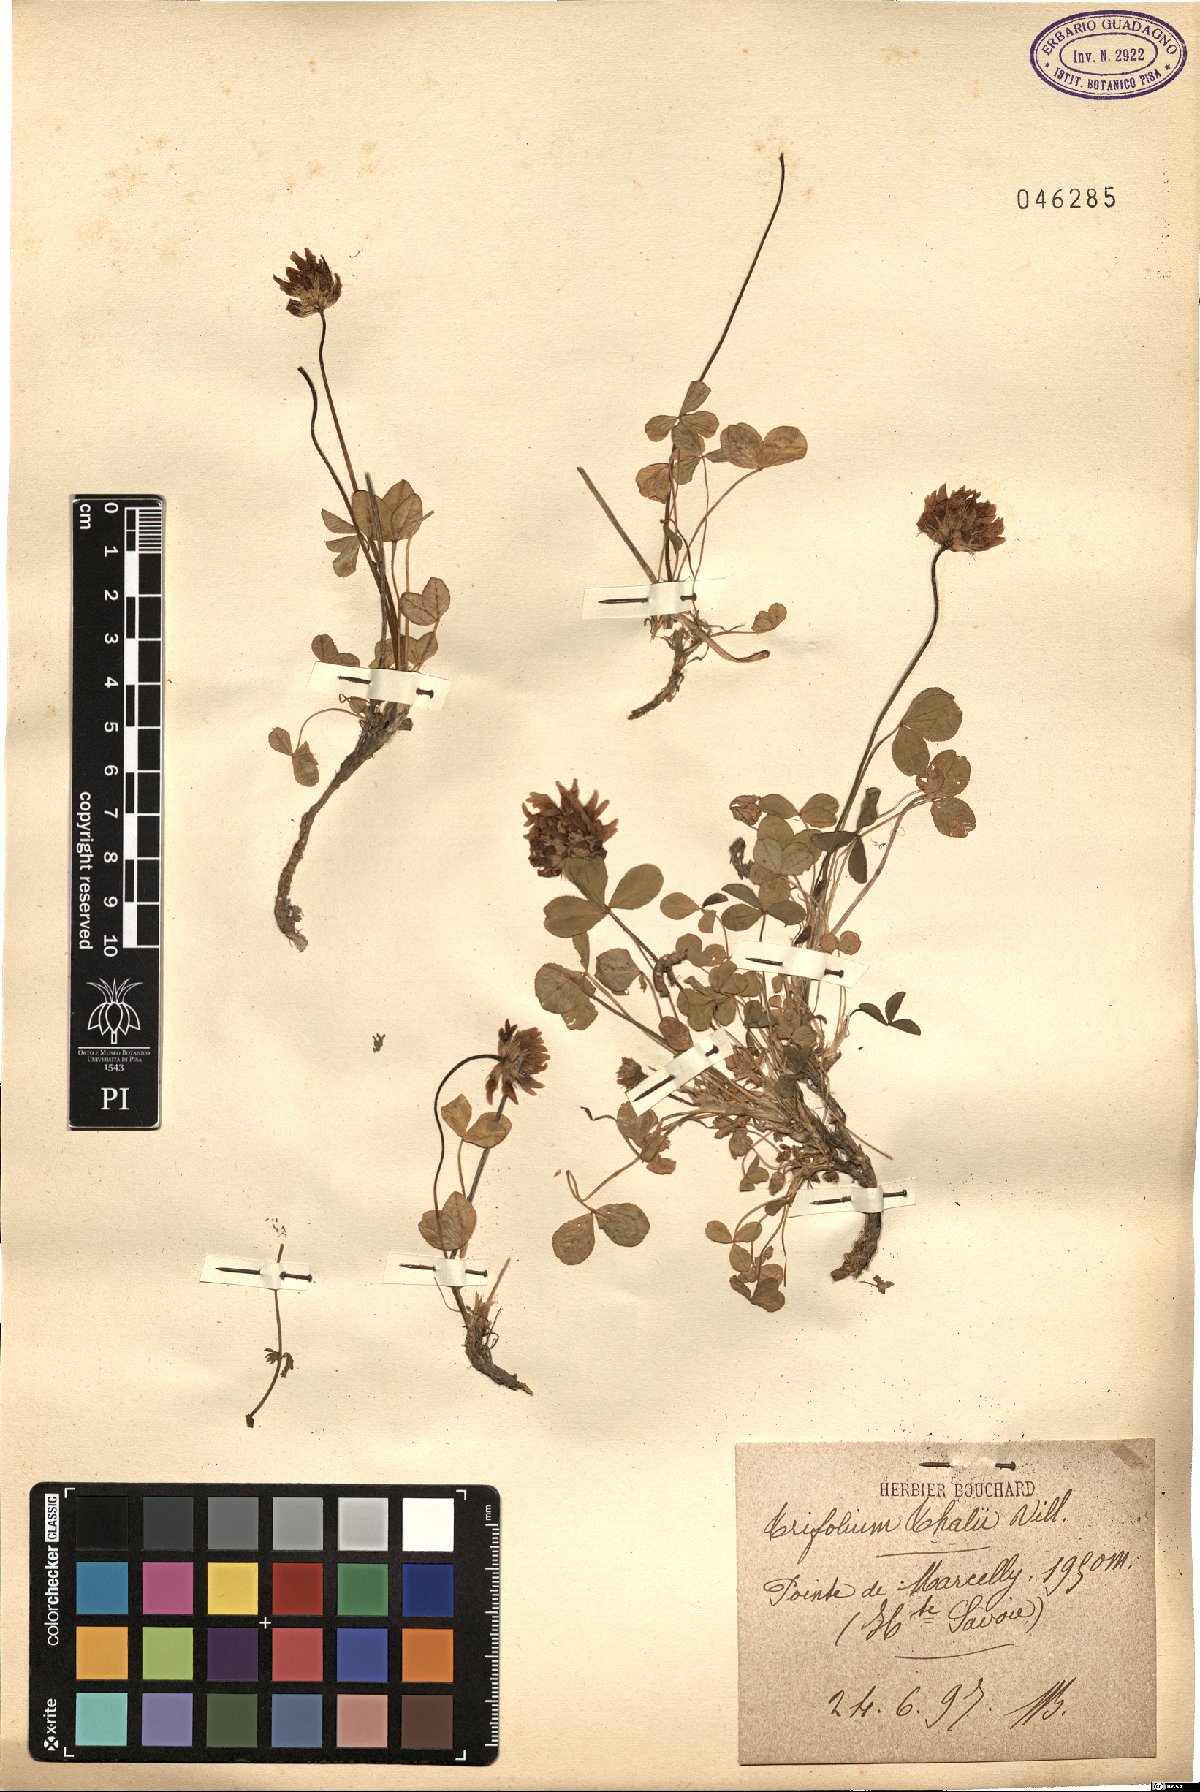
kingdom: Plantae
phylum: Tracheophyta
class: Magnoliopsida
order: Fabales
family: Fabaceae
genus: Trifolium
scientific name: Trifolium thalii
